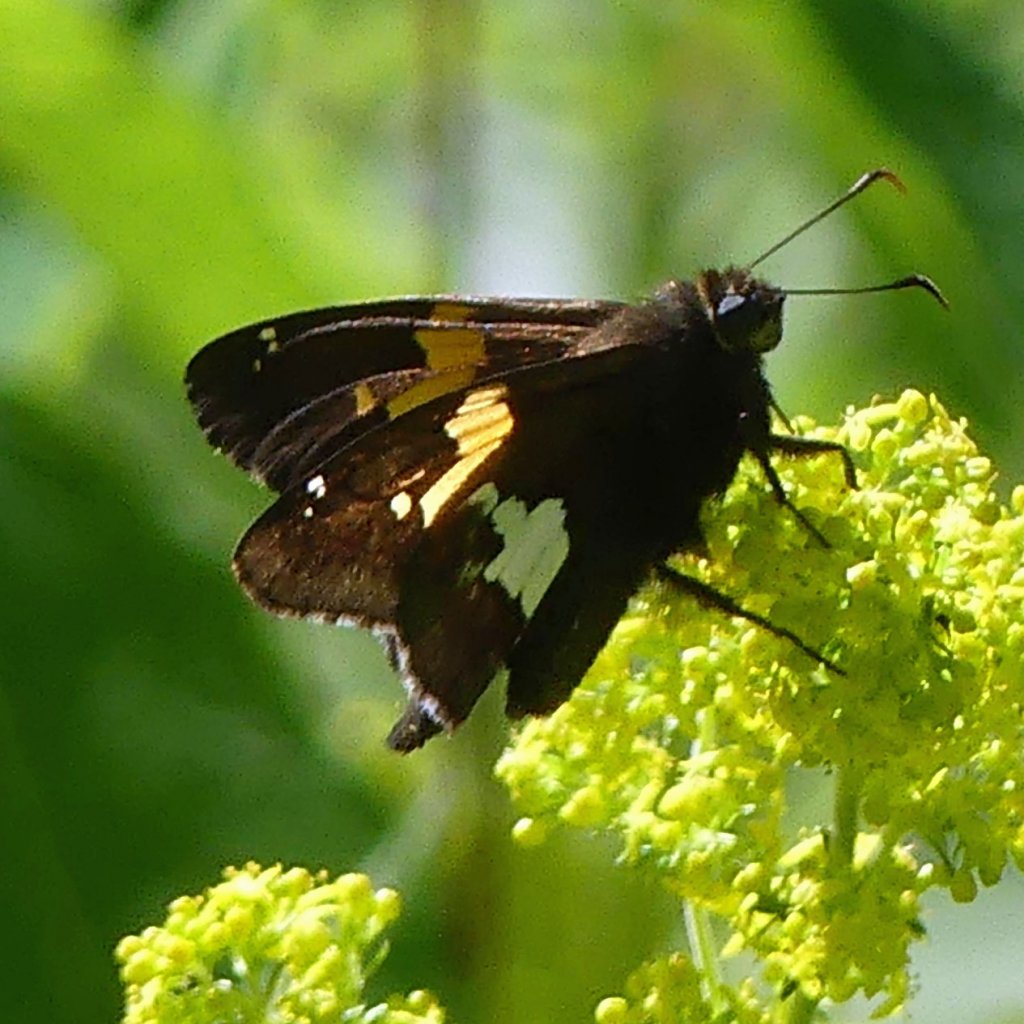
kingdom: Animalia
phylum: Arthropoda
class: Insecta
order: Lepidoptera
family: Hesperiidae
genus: Epargyreus
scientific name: Epargyreus clarus
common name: Silver-spotted Skipper
